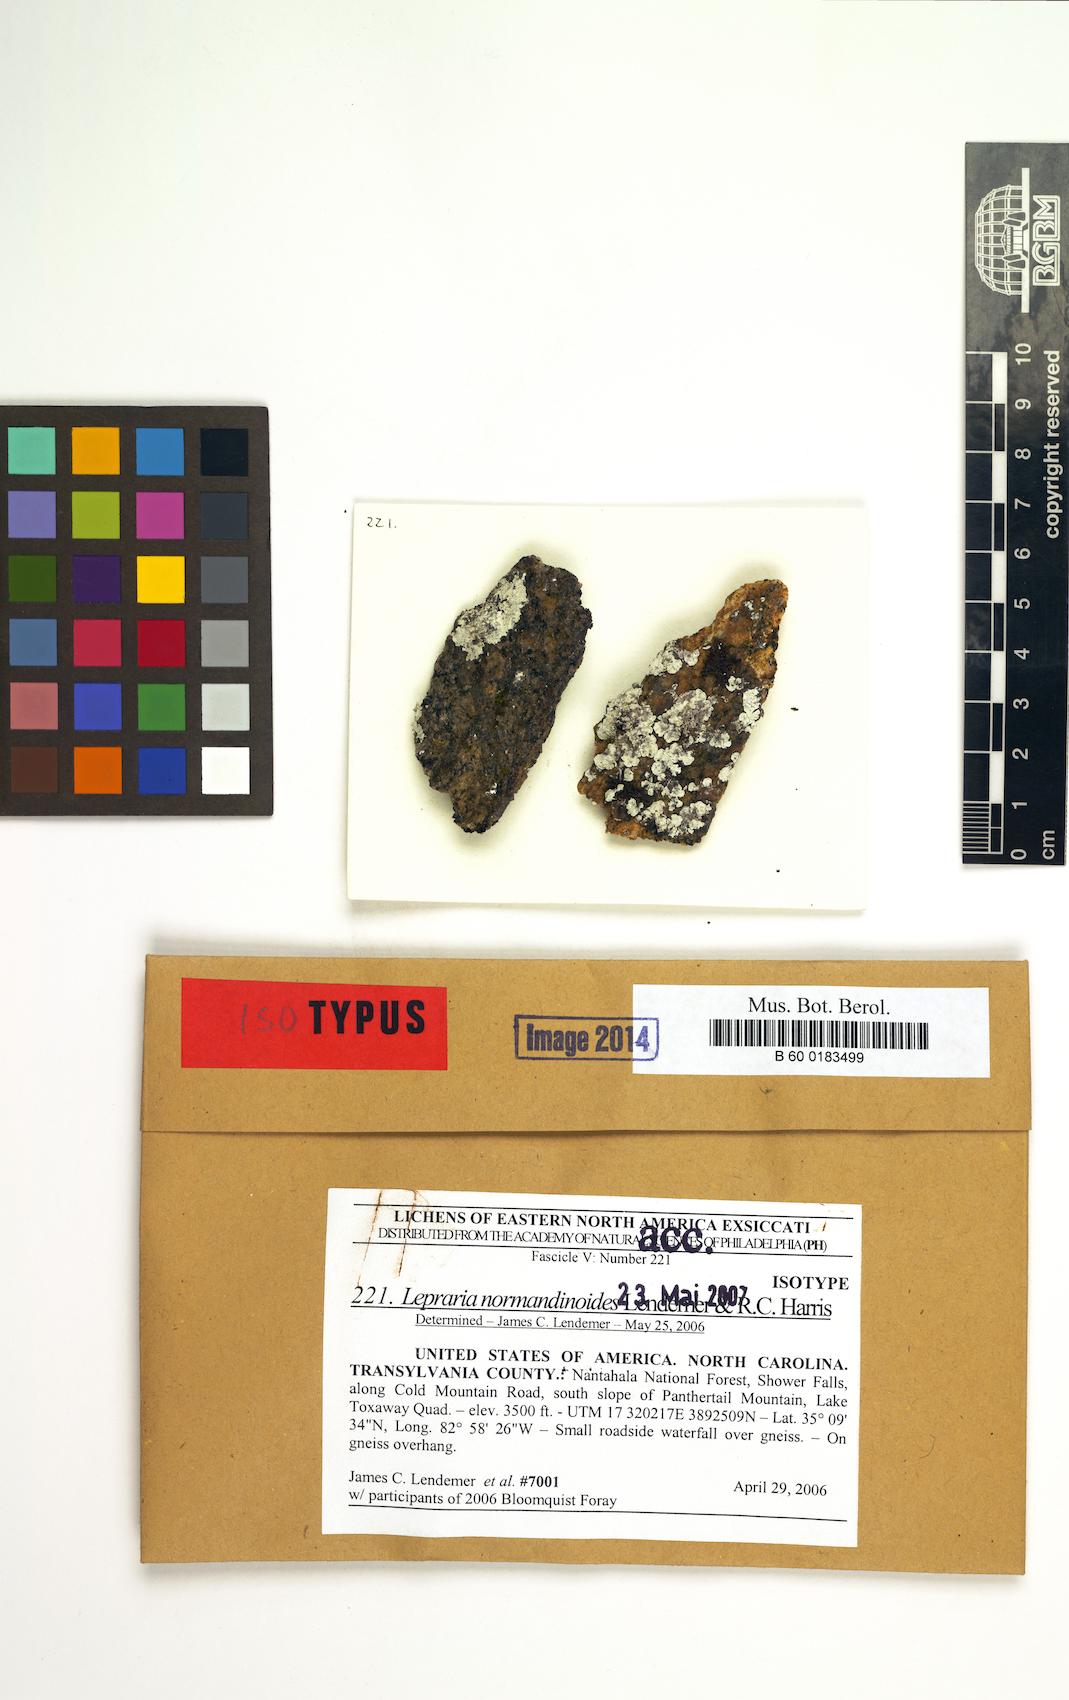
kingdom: Fungi
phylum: Ascomycota
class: Lecanoromycetes
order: Lecanorales
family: Stereocaulaceae
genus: Lepraria
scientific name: Lepraria normandinoides
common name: Elf-ear dust
